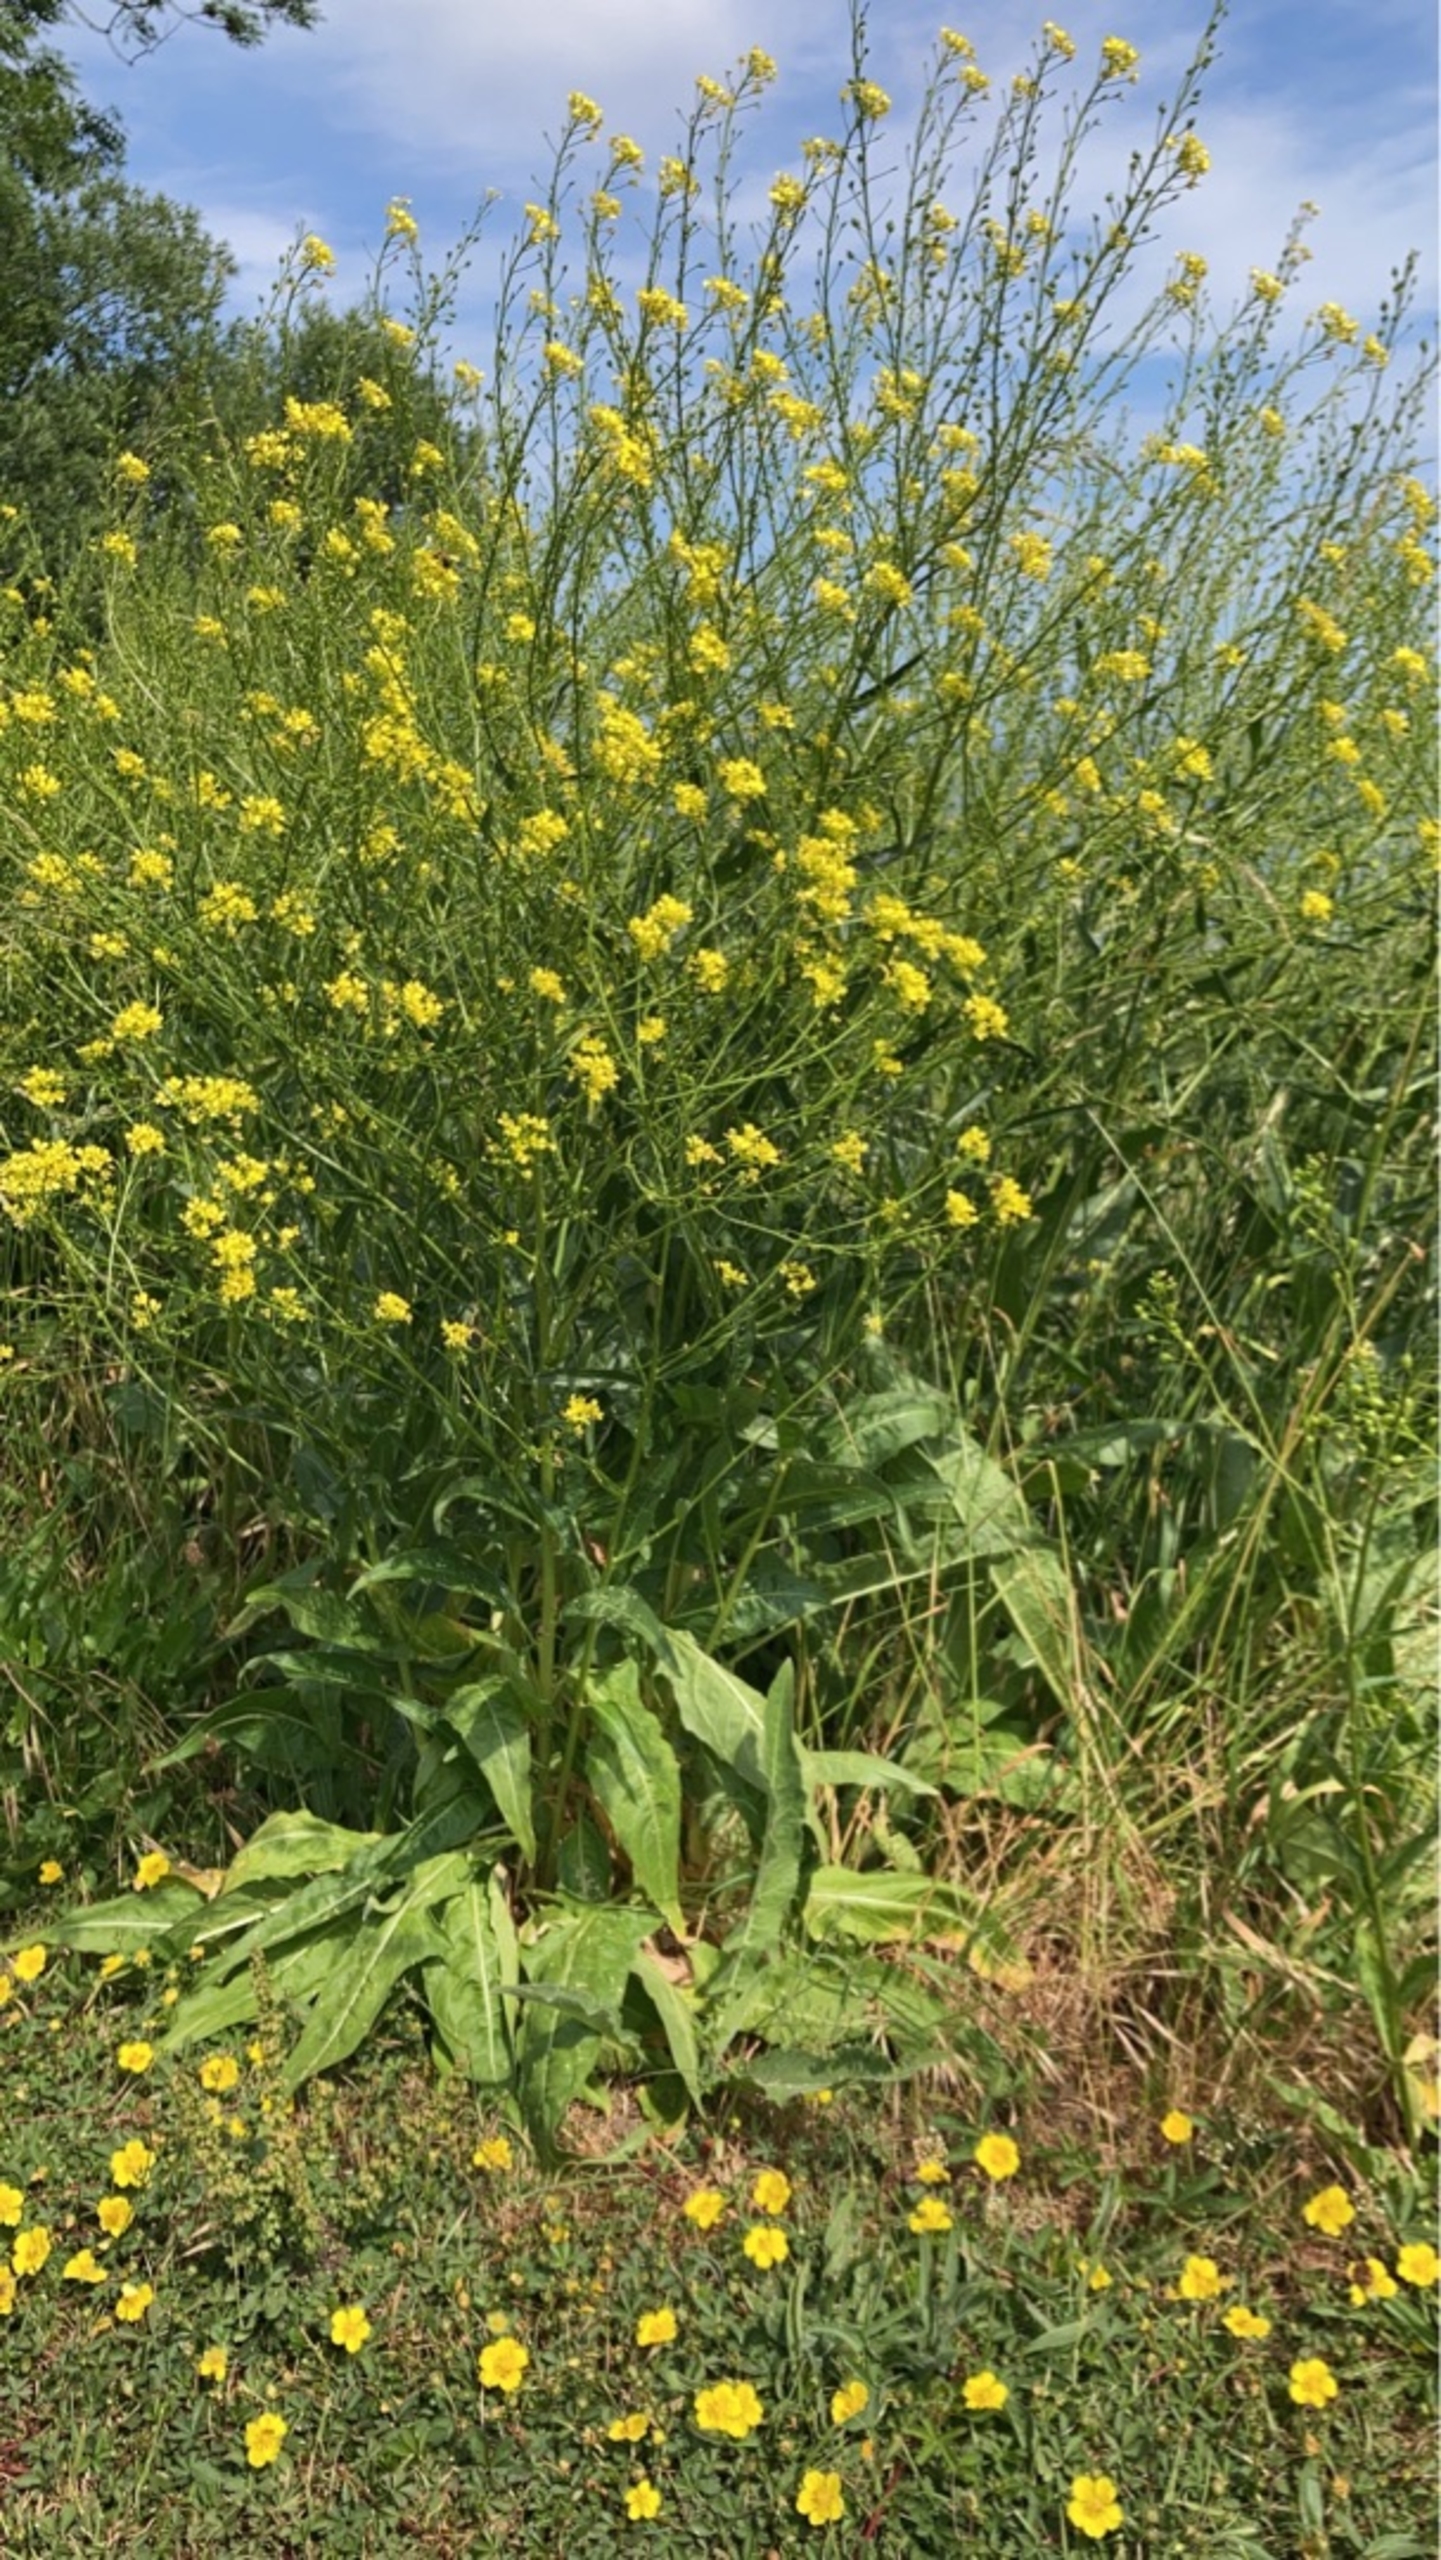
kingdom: Plantae
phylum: Tracheophyta
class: Magnoliopsida
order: Brassicales
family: Brassicaceae
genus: Bunias
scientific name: Bunias orientalis
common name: Takkeklap
